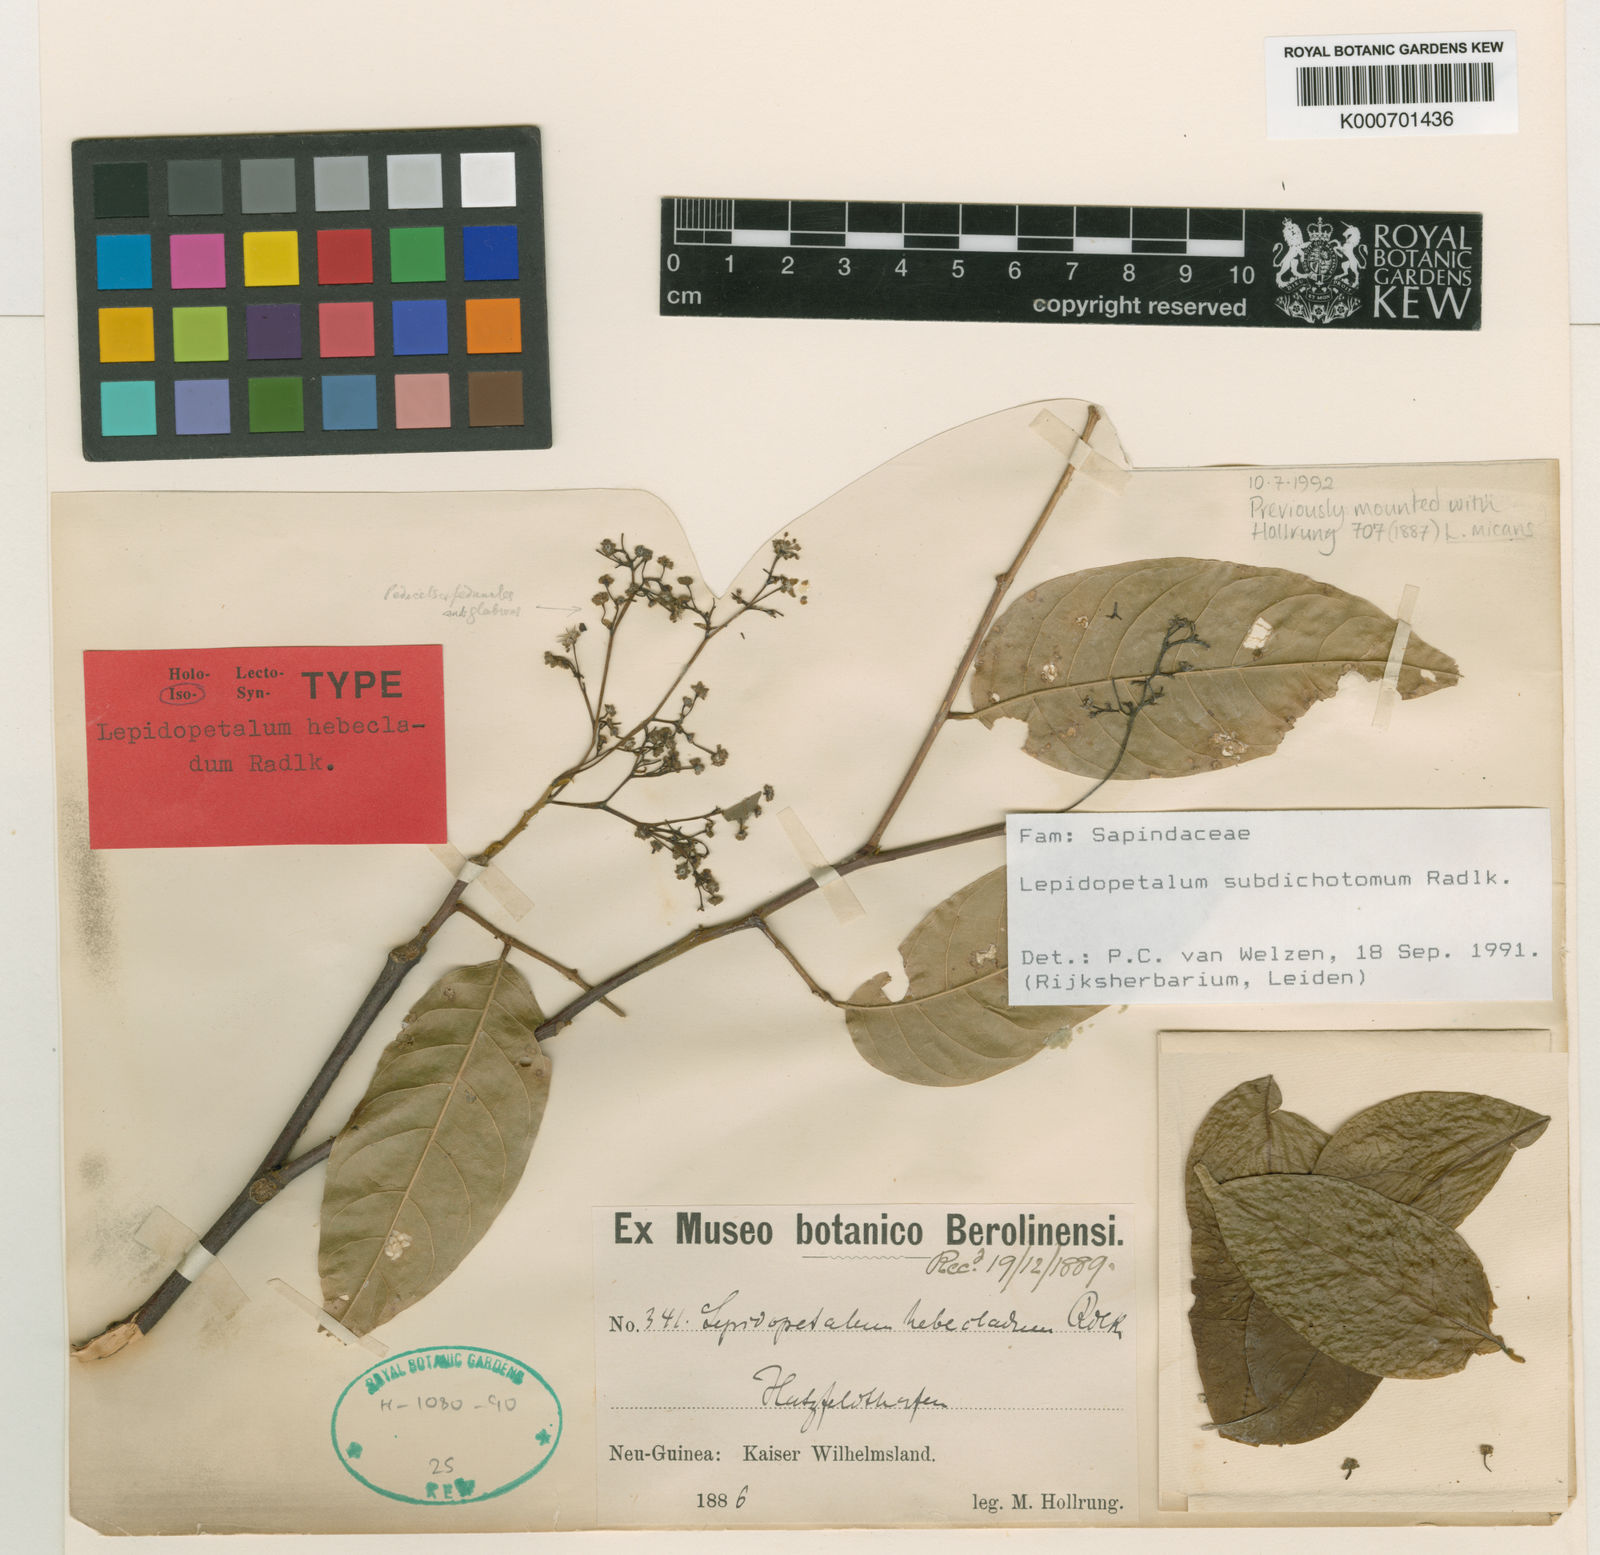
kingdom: Plantae
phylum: Tracheophyta
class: Magnoliopsida
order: Sapindales
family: Sapindaceae
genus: Lepidopetalum
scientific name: Lepidopetalum subdichotomum
